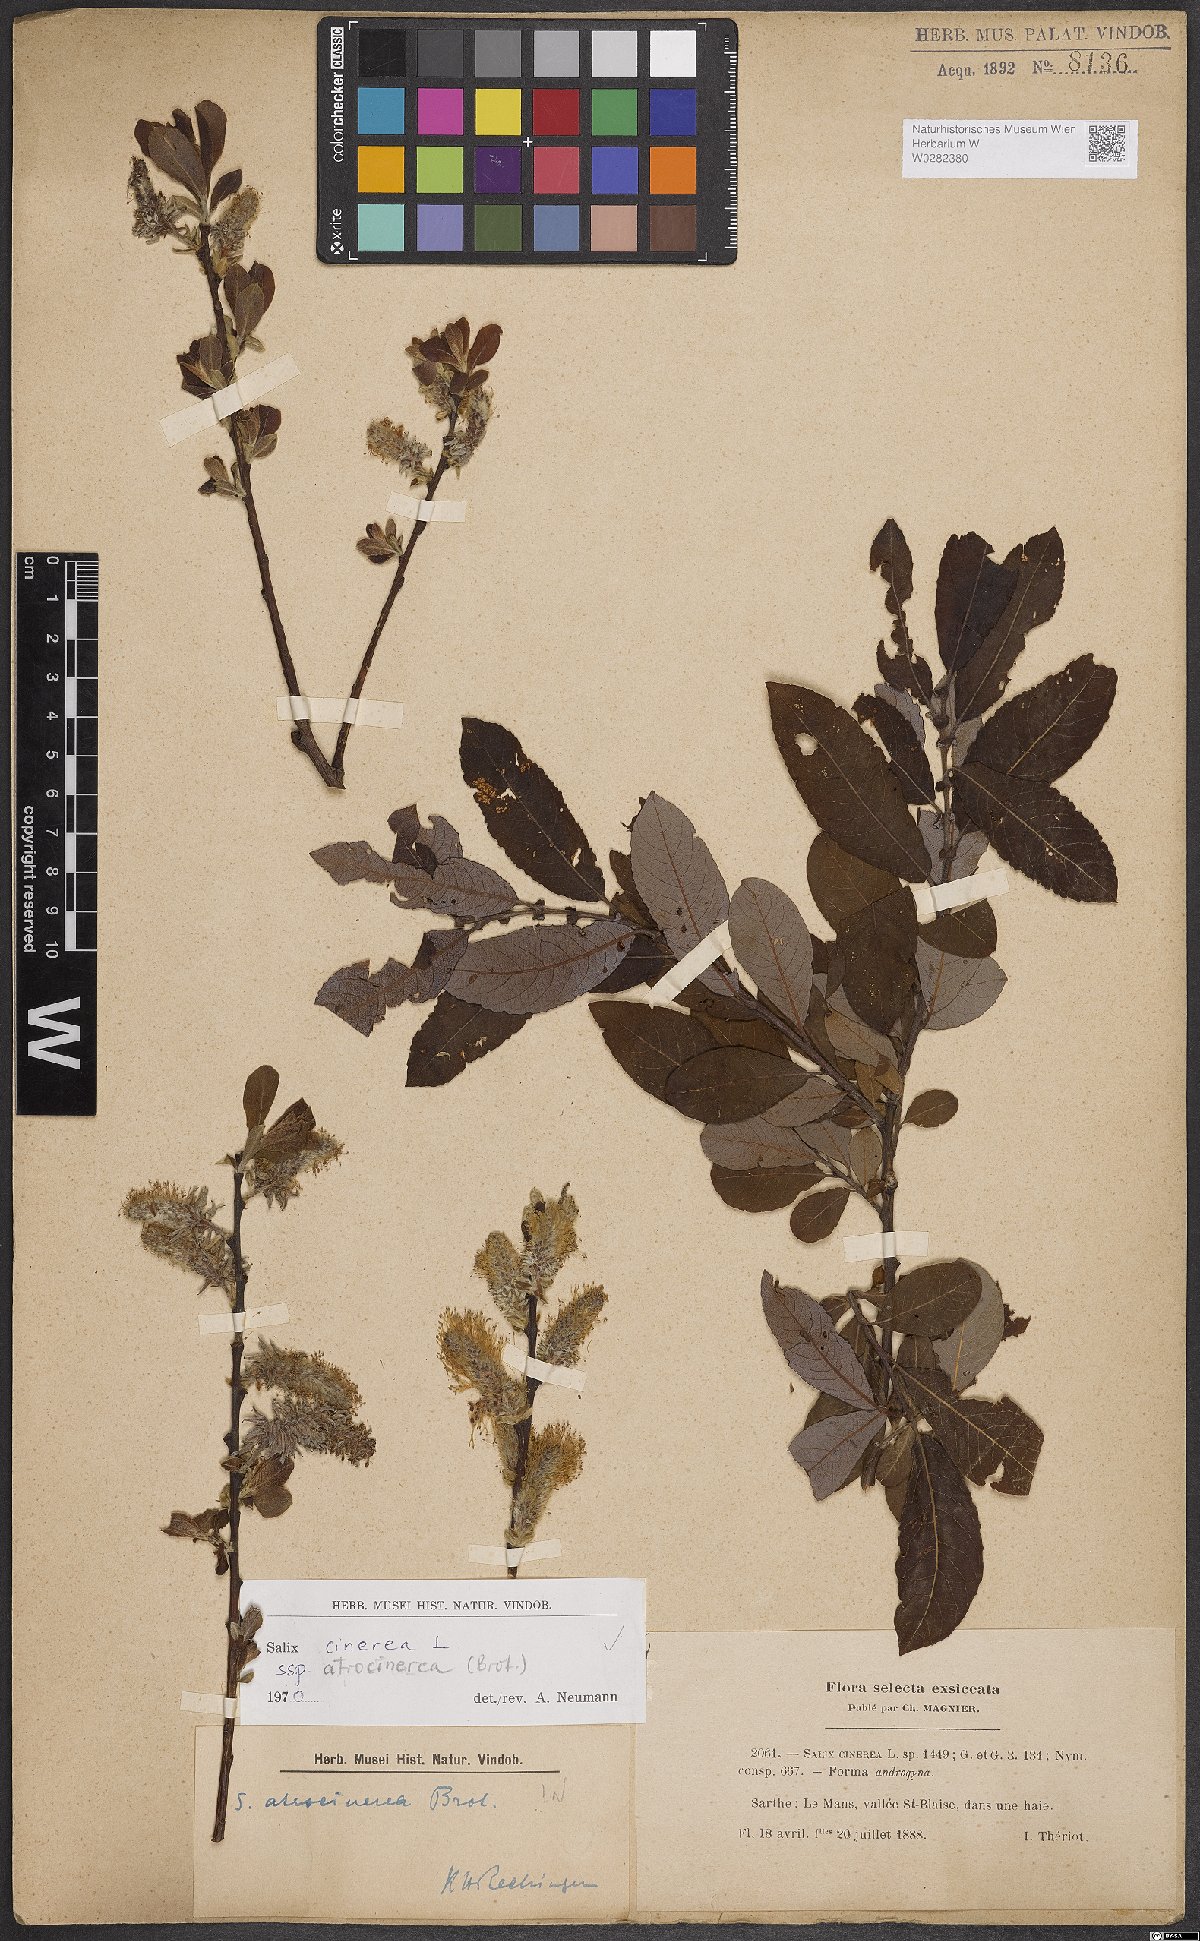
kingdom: Plantae
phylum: Tracheophyta
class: Magnoliopsida
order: Malpighiales
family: Salicaceae
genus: Salix
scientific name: Salix atrocinerea
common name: Rusty willow
